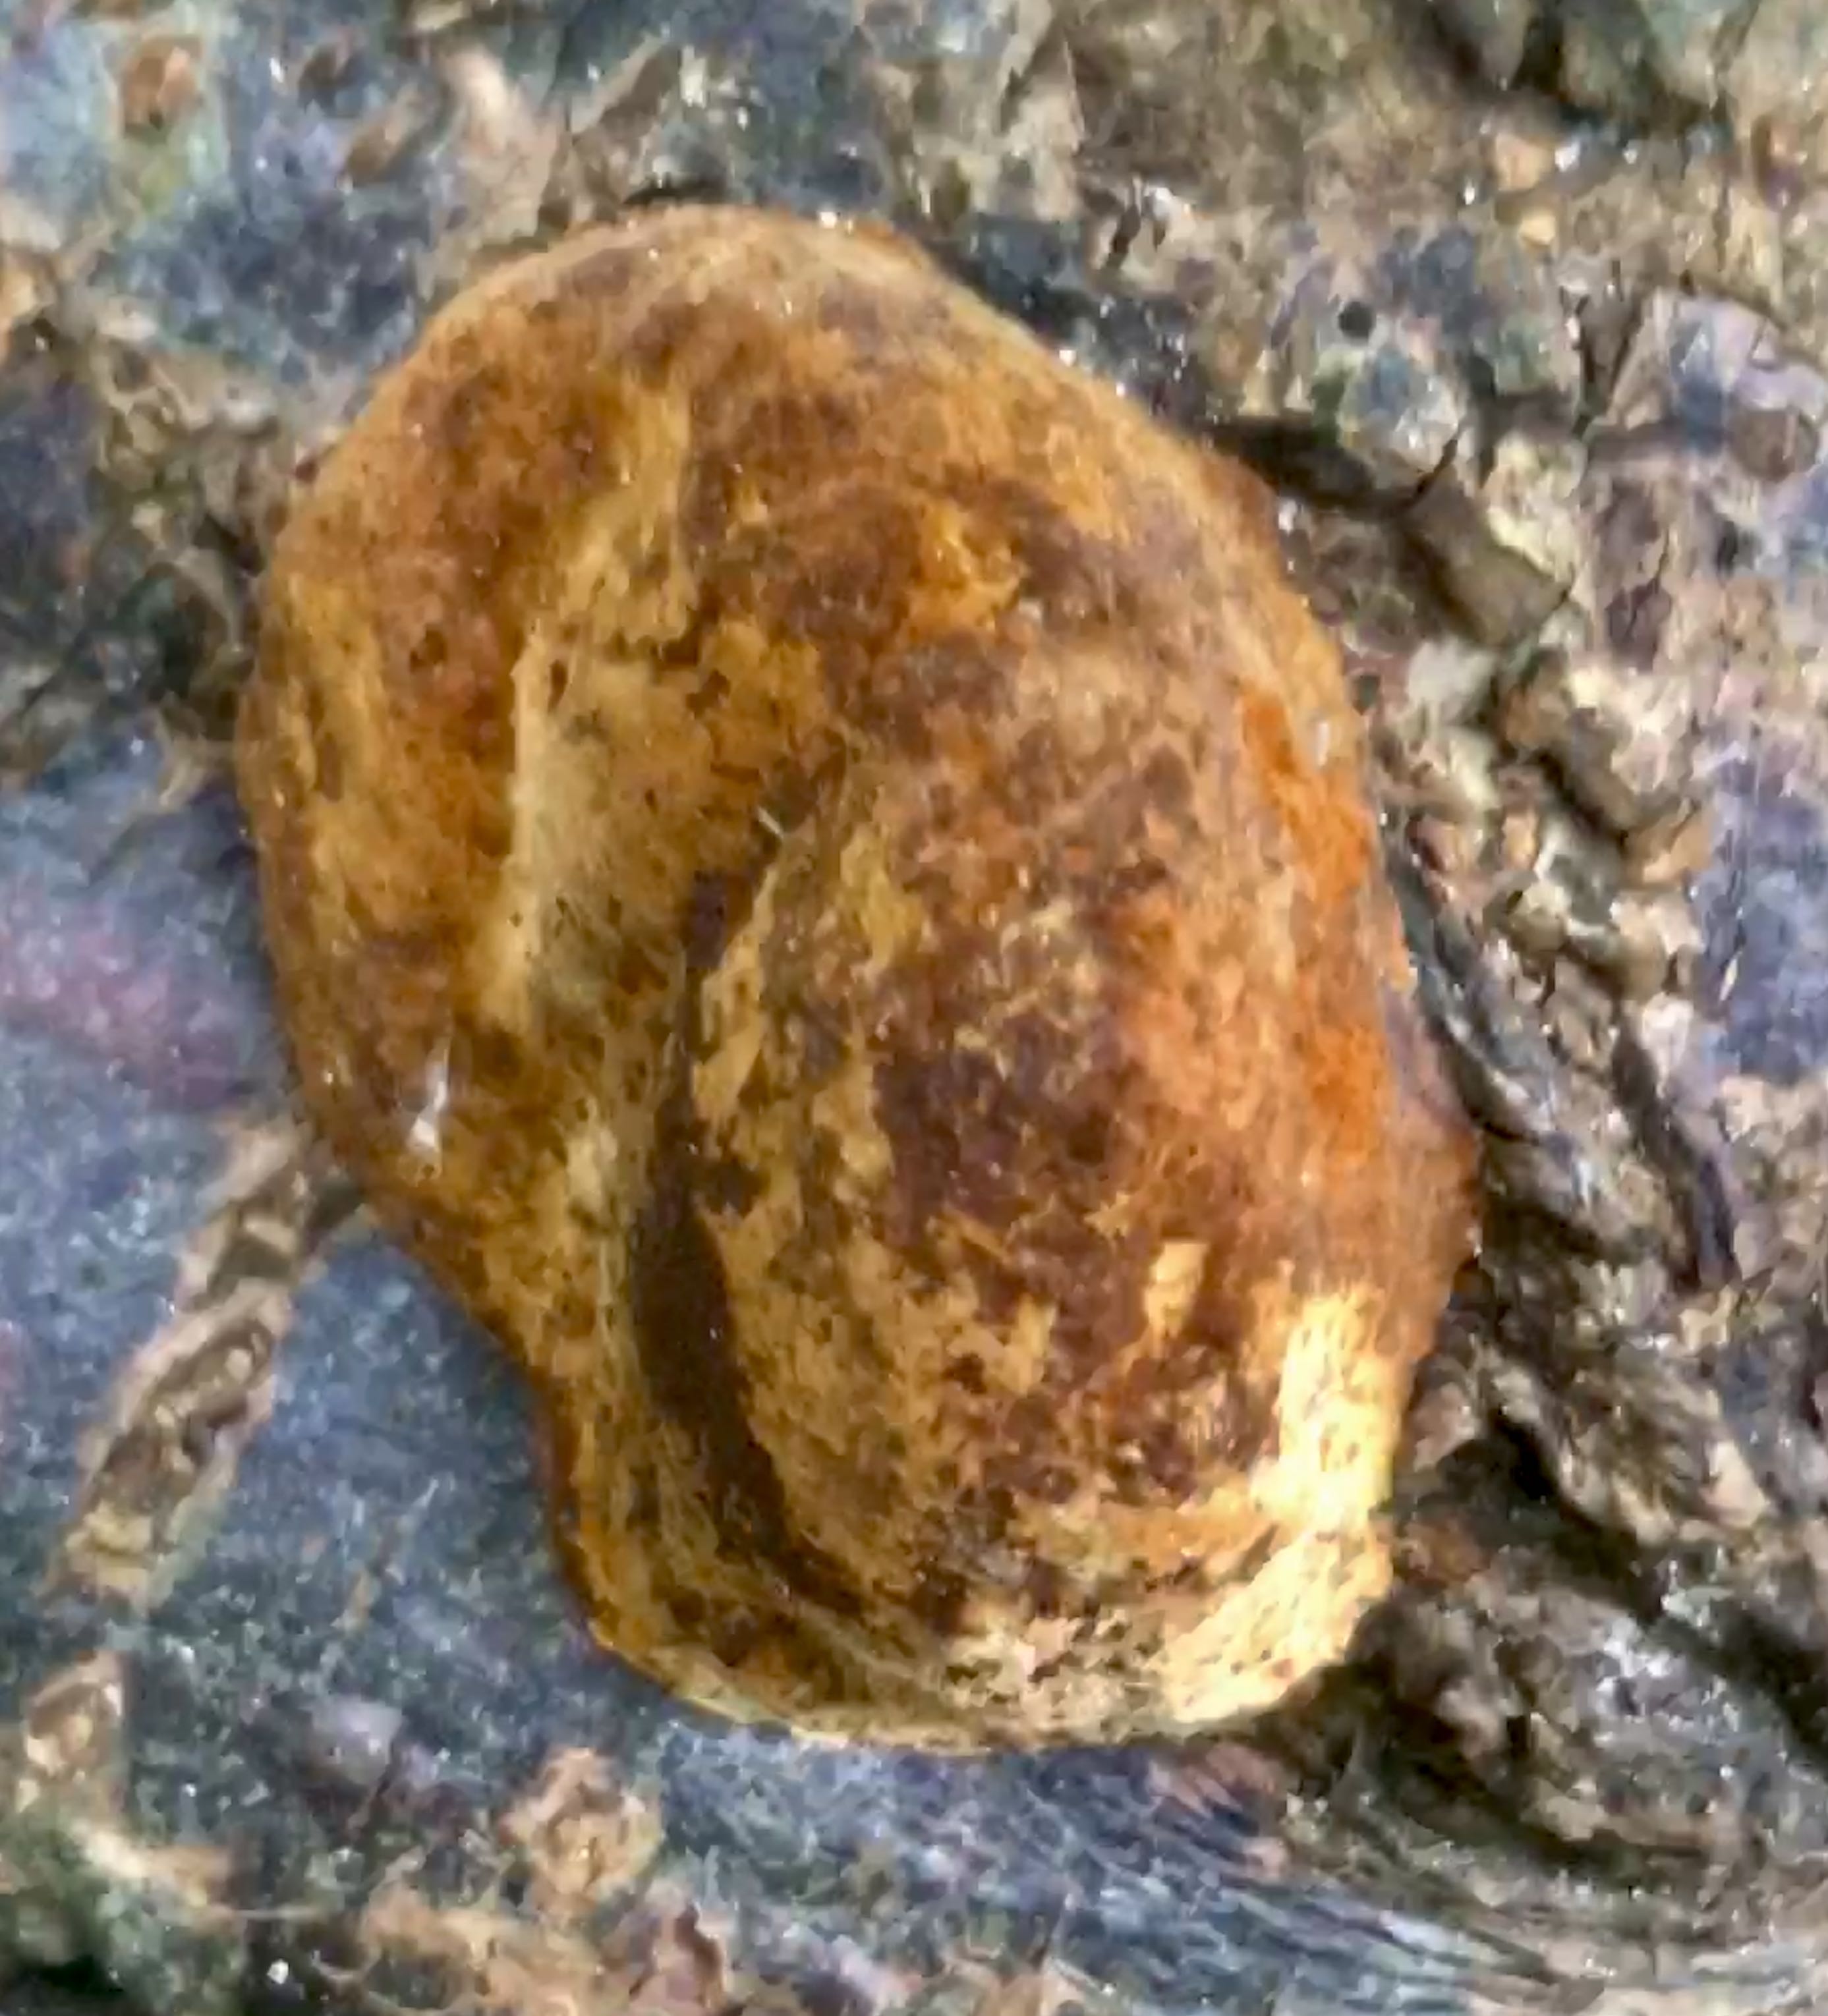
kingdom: Fungi
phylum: Basidiomycota
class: Agaricomycetes
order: Hymenochaetales
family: Hymenochaetaceae
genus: Phellinus
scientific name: Phellinus pomaceus
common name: blomme-ildporesvamp
